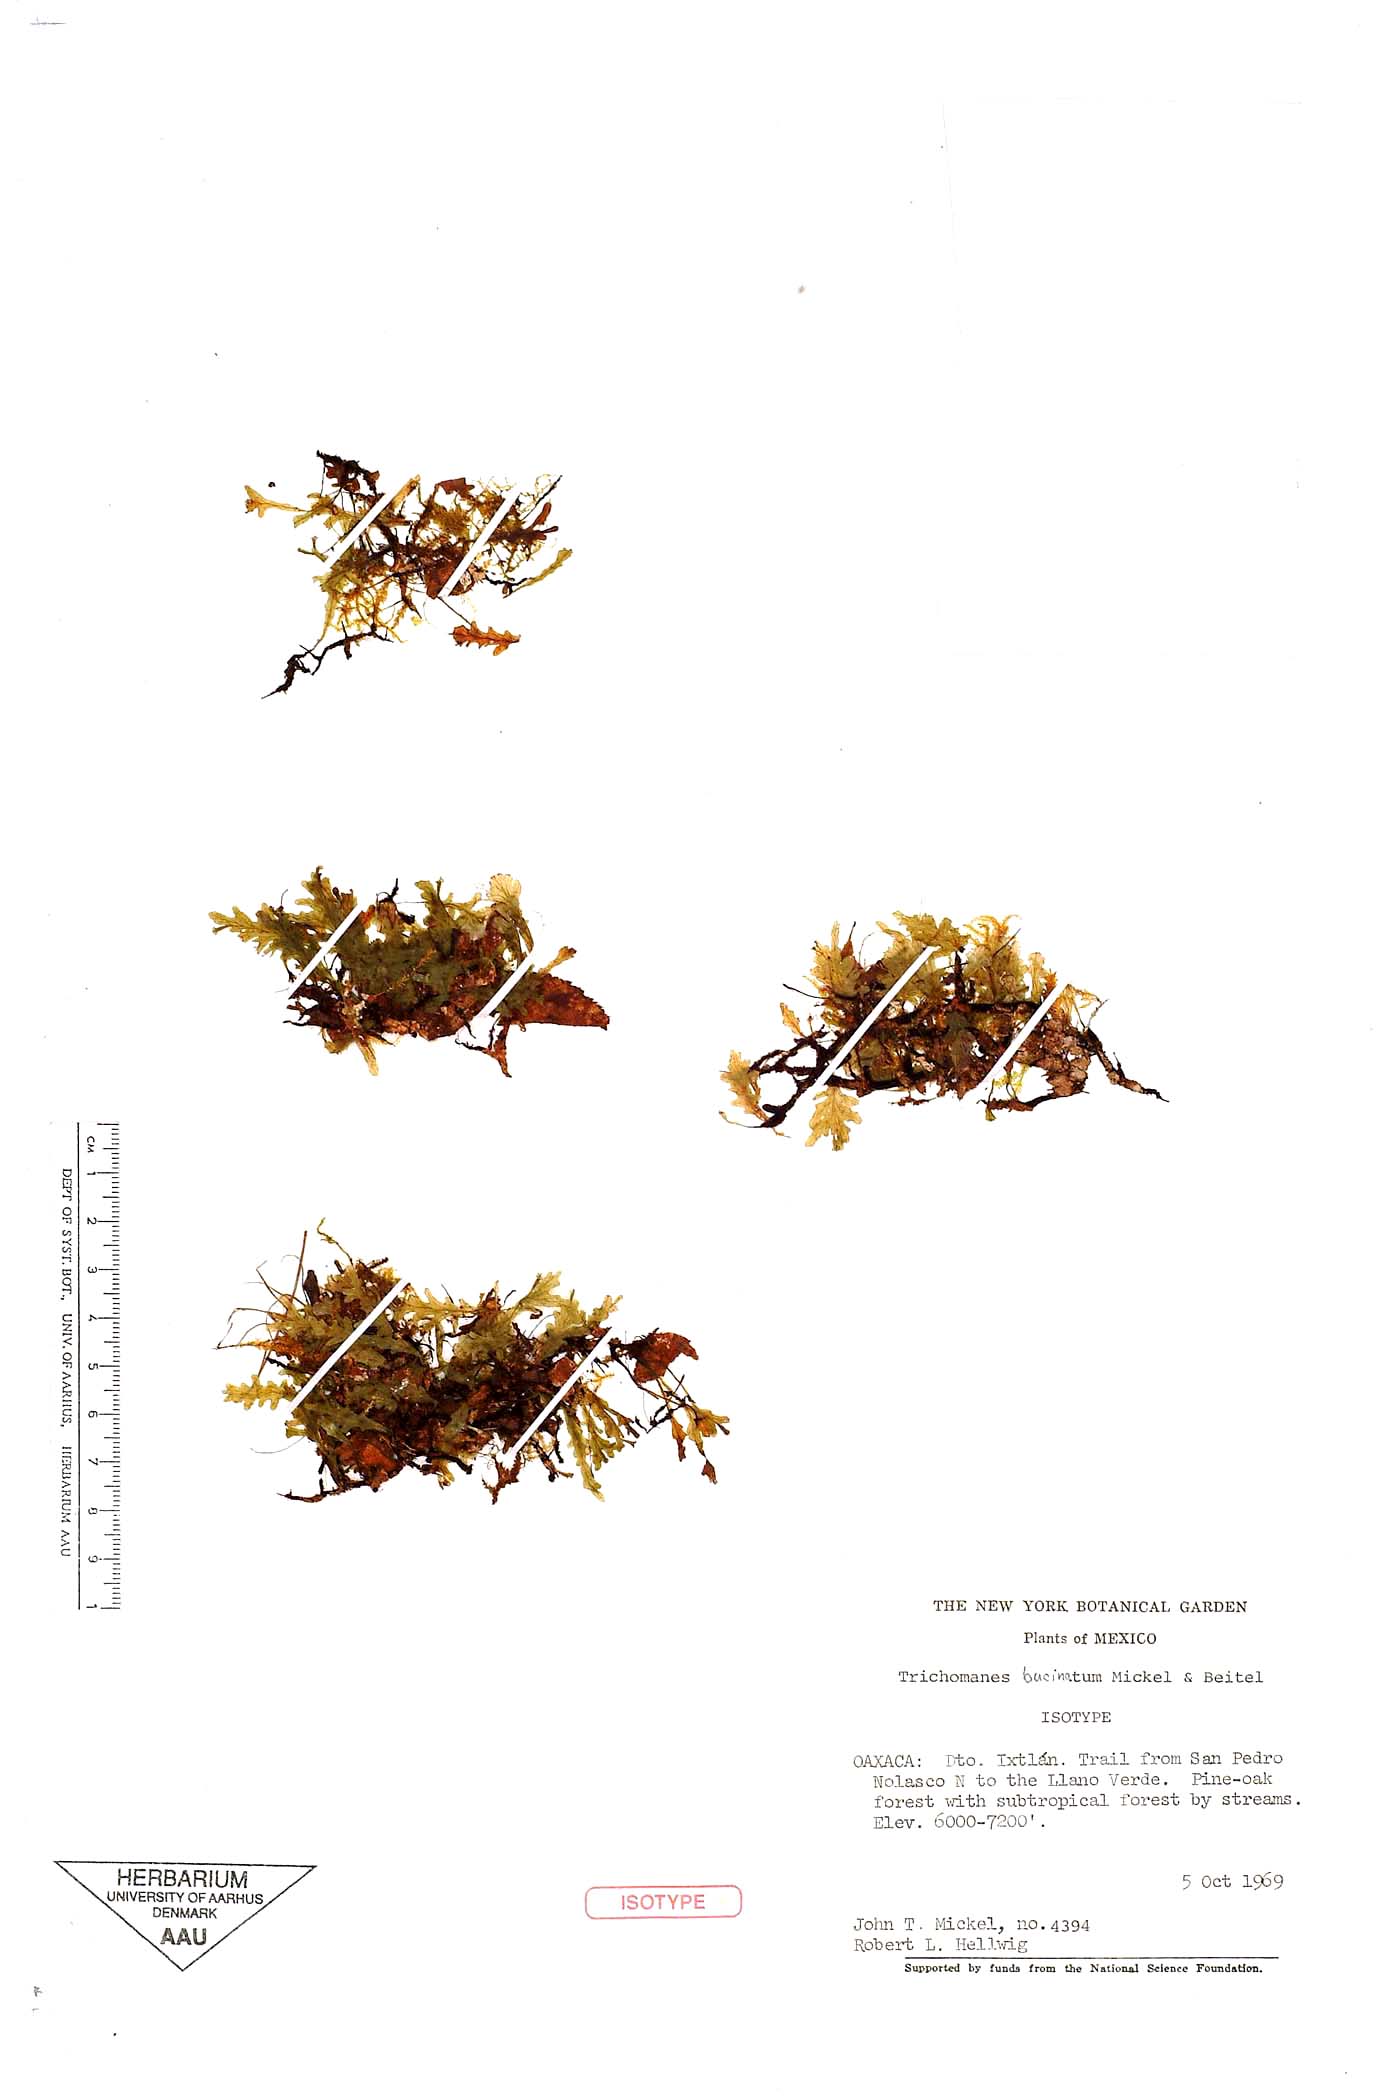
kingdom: Plantae
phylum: Tracheophyta
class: Polypodiopsida
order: Hymenophyllales
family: Hymenophyllaceae
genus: Didymoglossum
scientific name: Didymoglossum bucinatum
